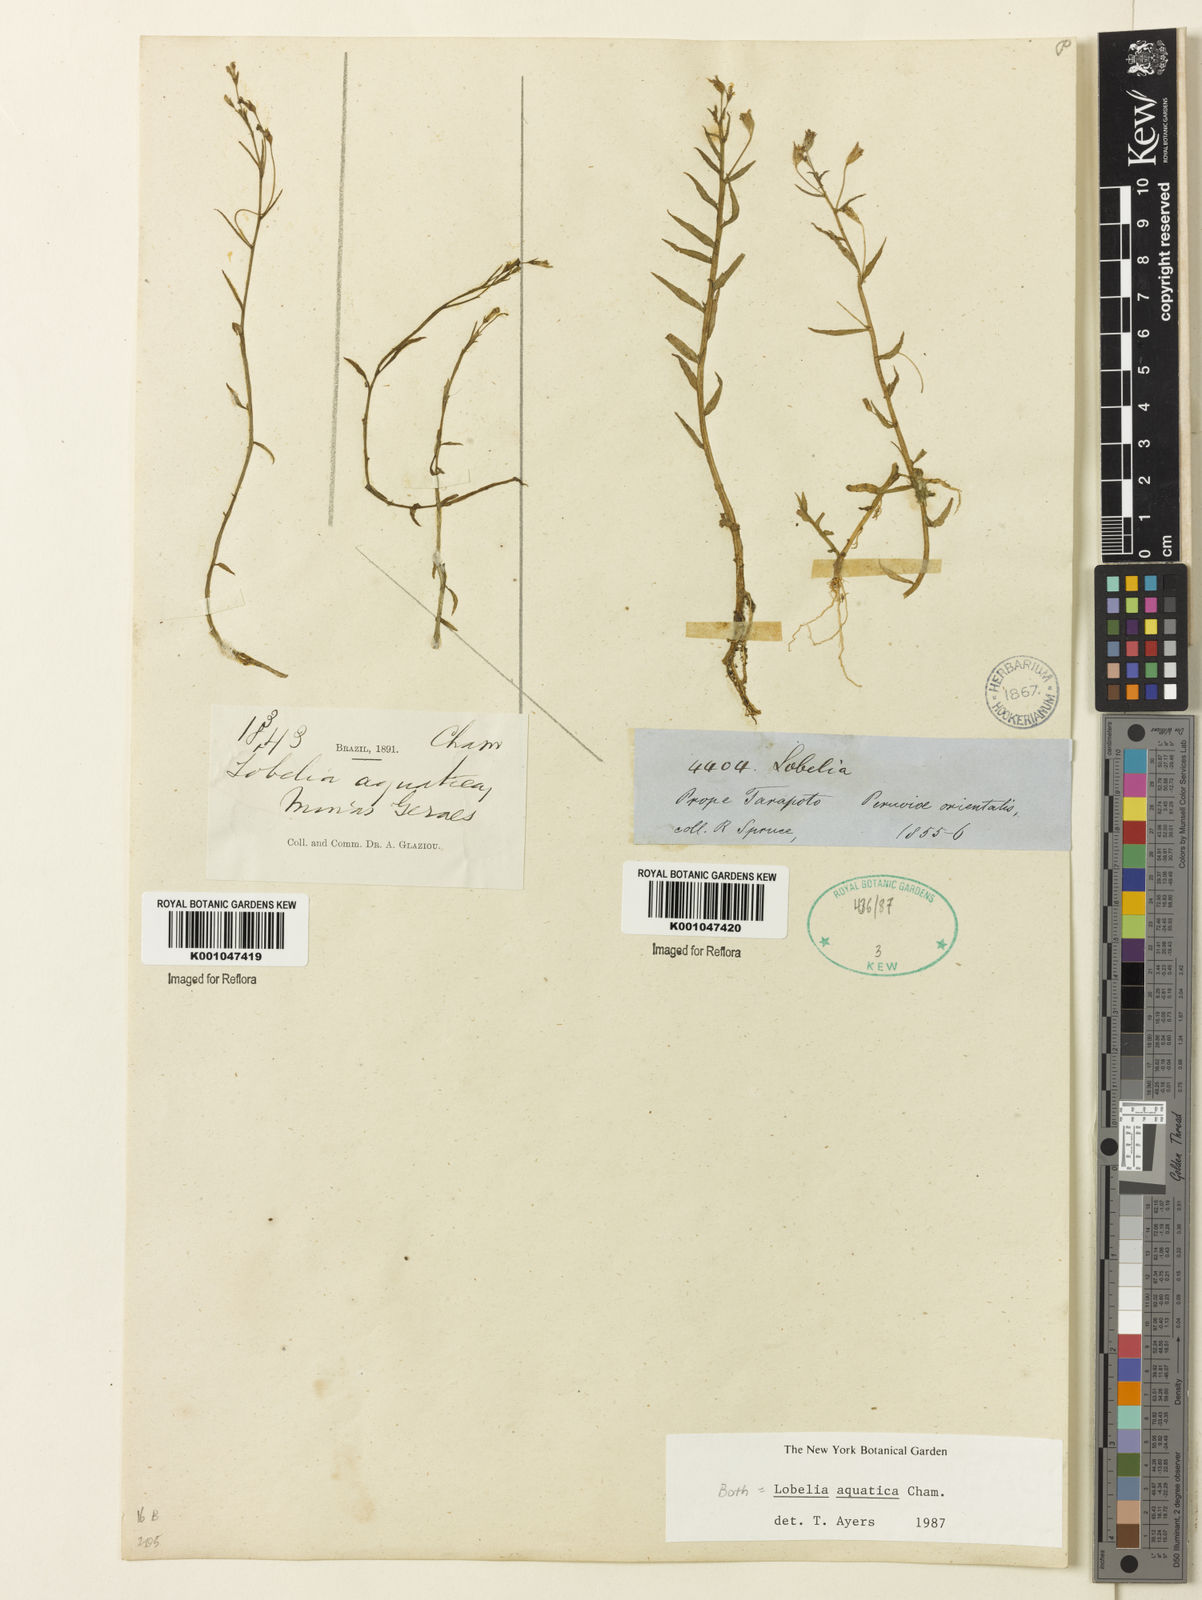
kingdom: Plantae
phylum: Tracheophyta
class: Magnoliopsida
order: Asterales
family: Campanulaceae
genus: Lobelia
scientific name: Lobelia aquatica
